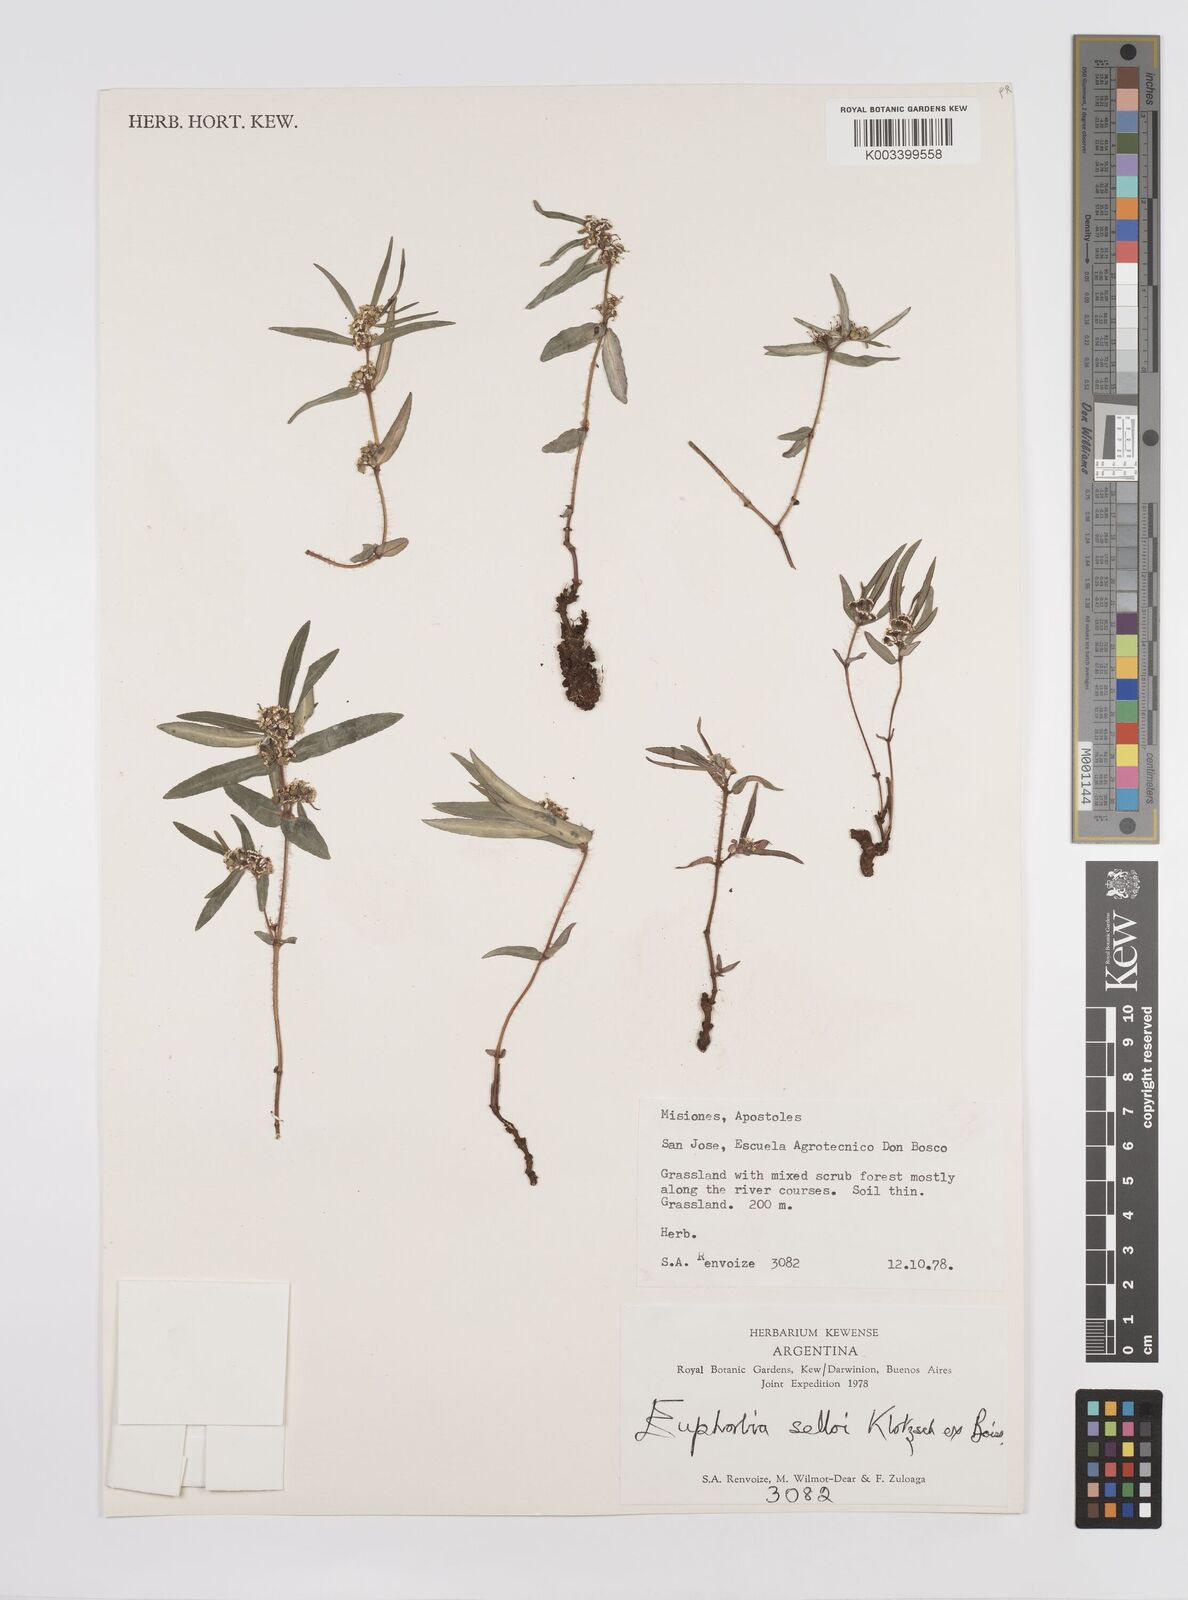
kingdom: Plantae
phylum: Tracheophyta
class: Magnoliopsida
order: Malpighiales
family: Euphorbiaceae
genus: Euphorbia
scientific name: Euphorbia selloi
